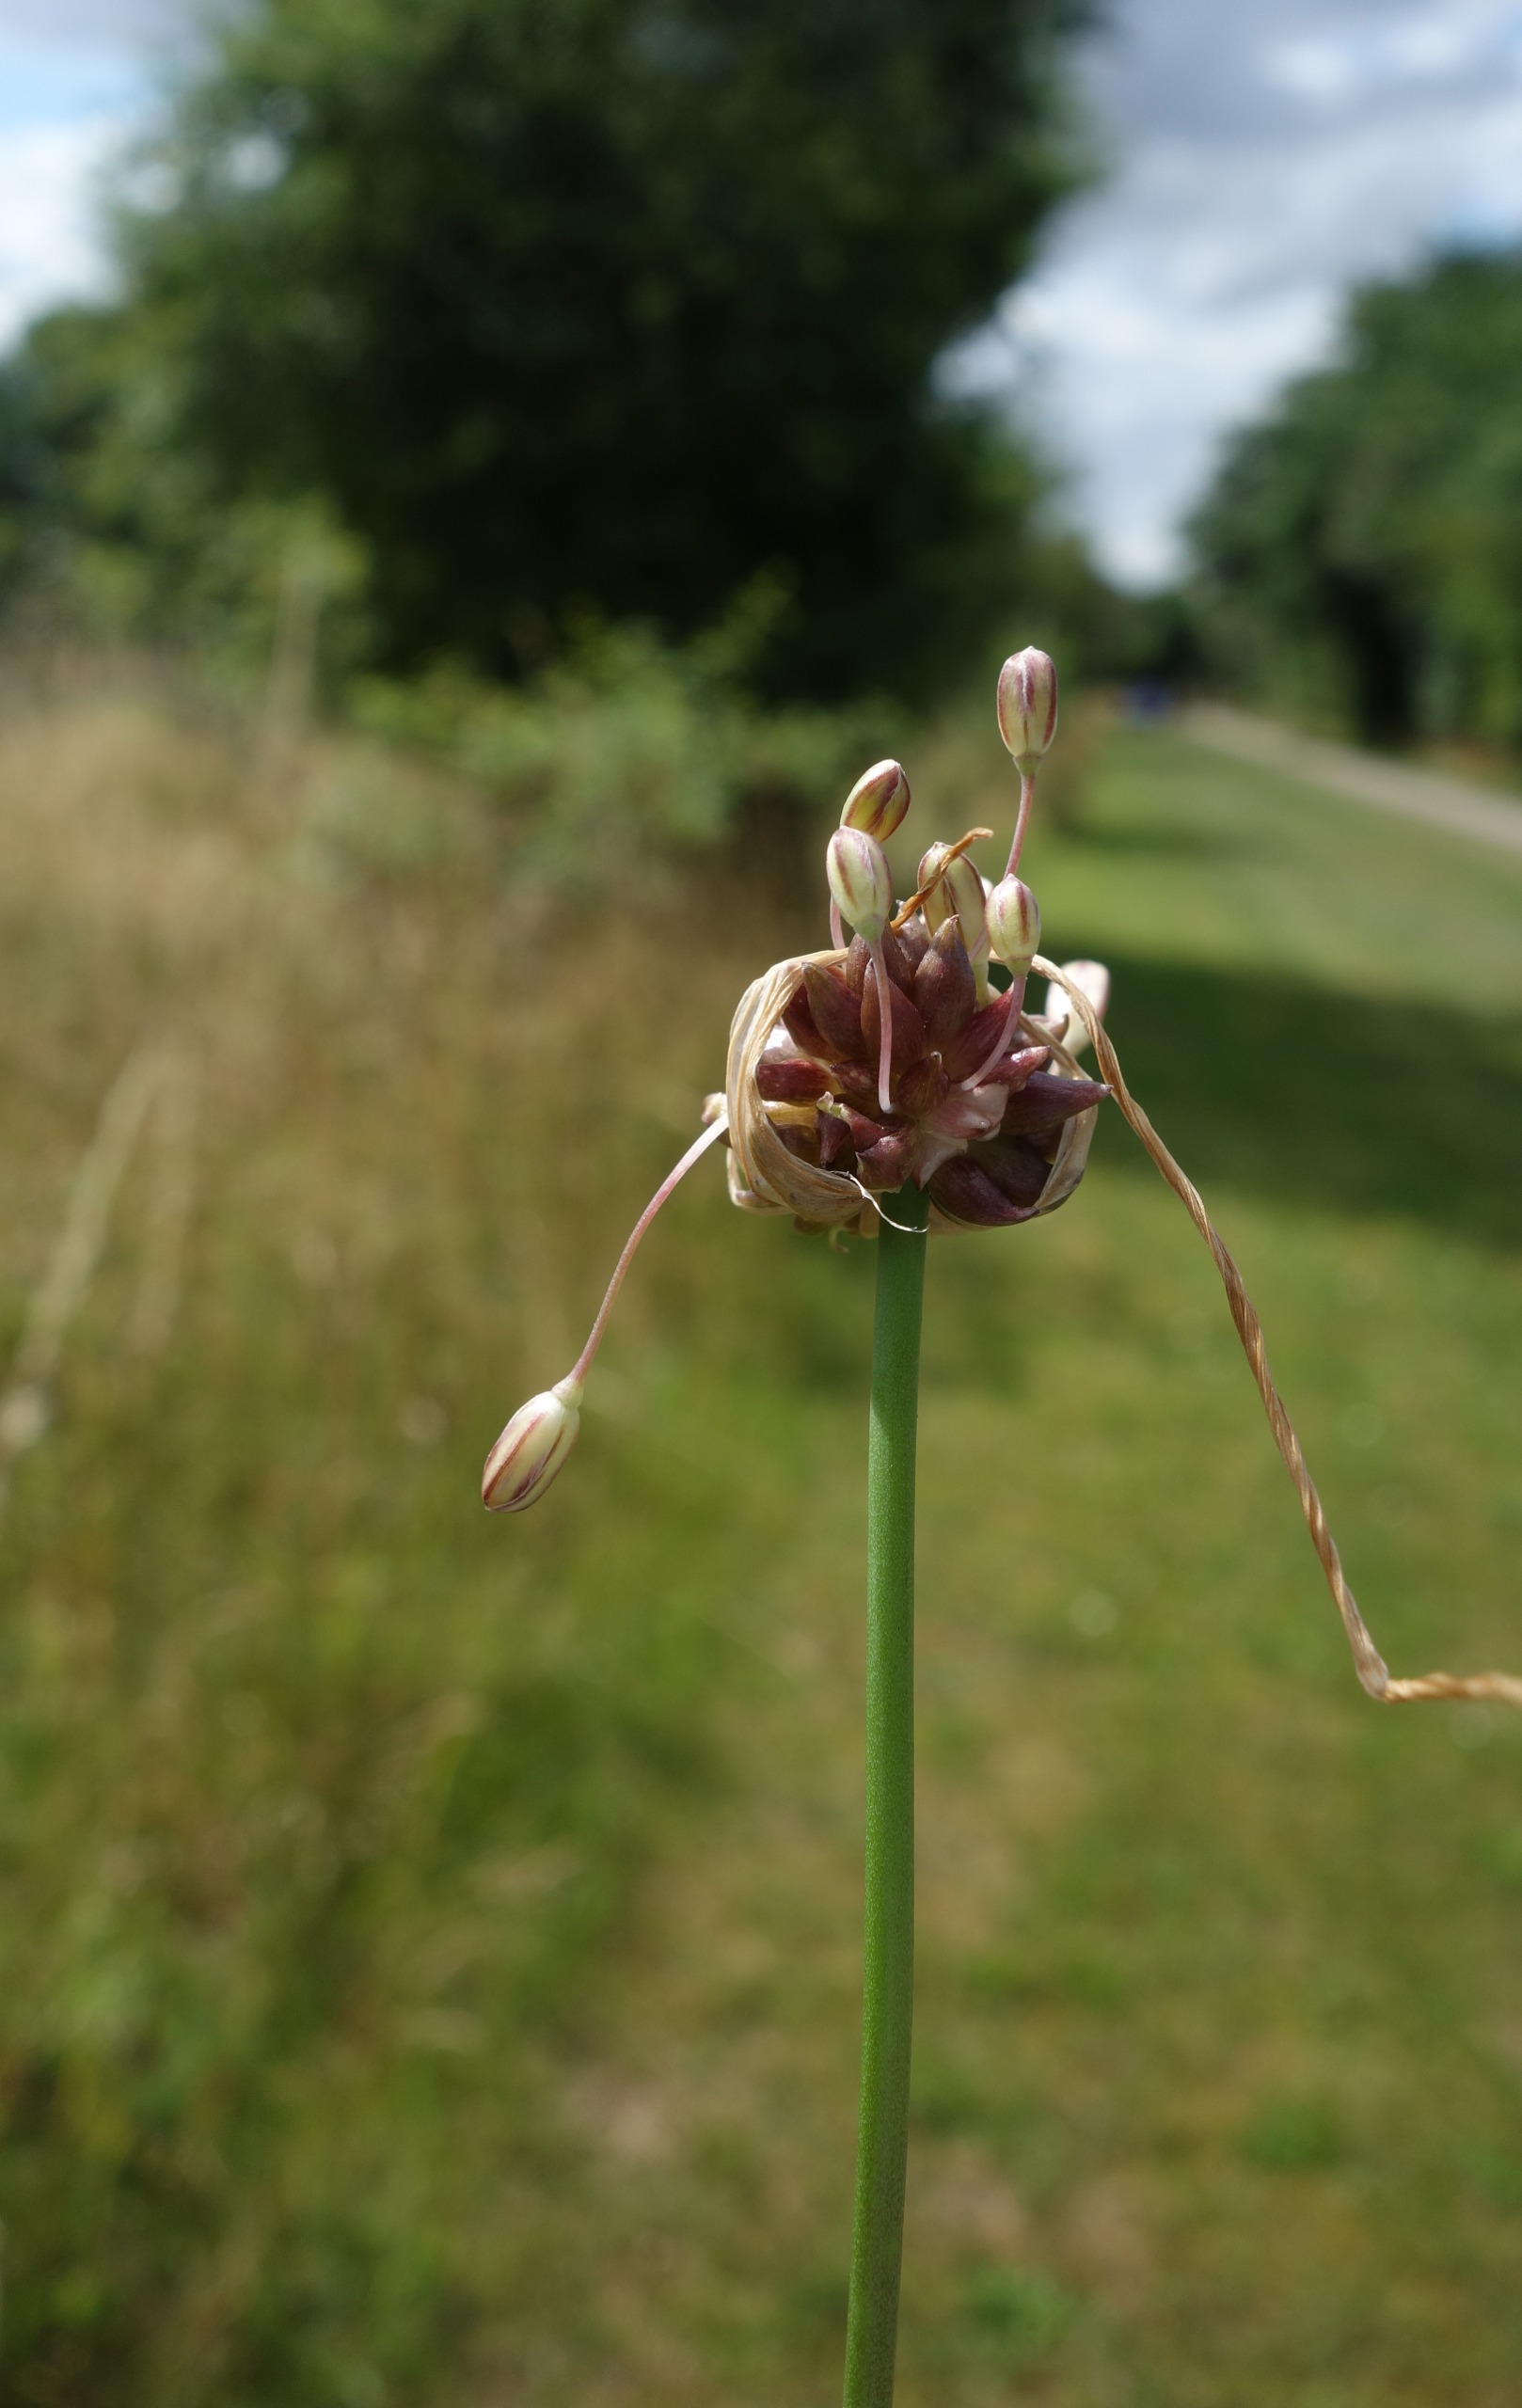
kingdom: Plantae
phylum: Tracheophyta
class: Liliopsida
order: Asparagales
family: Amaryllidaceae
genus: Allium
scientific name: Allium oleraceum
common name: Vild løg
